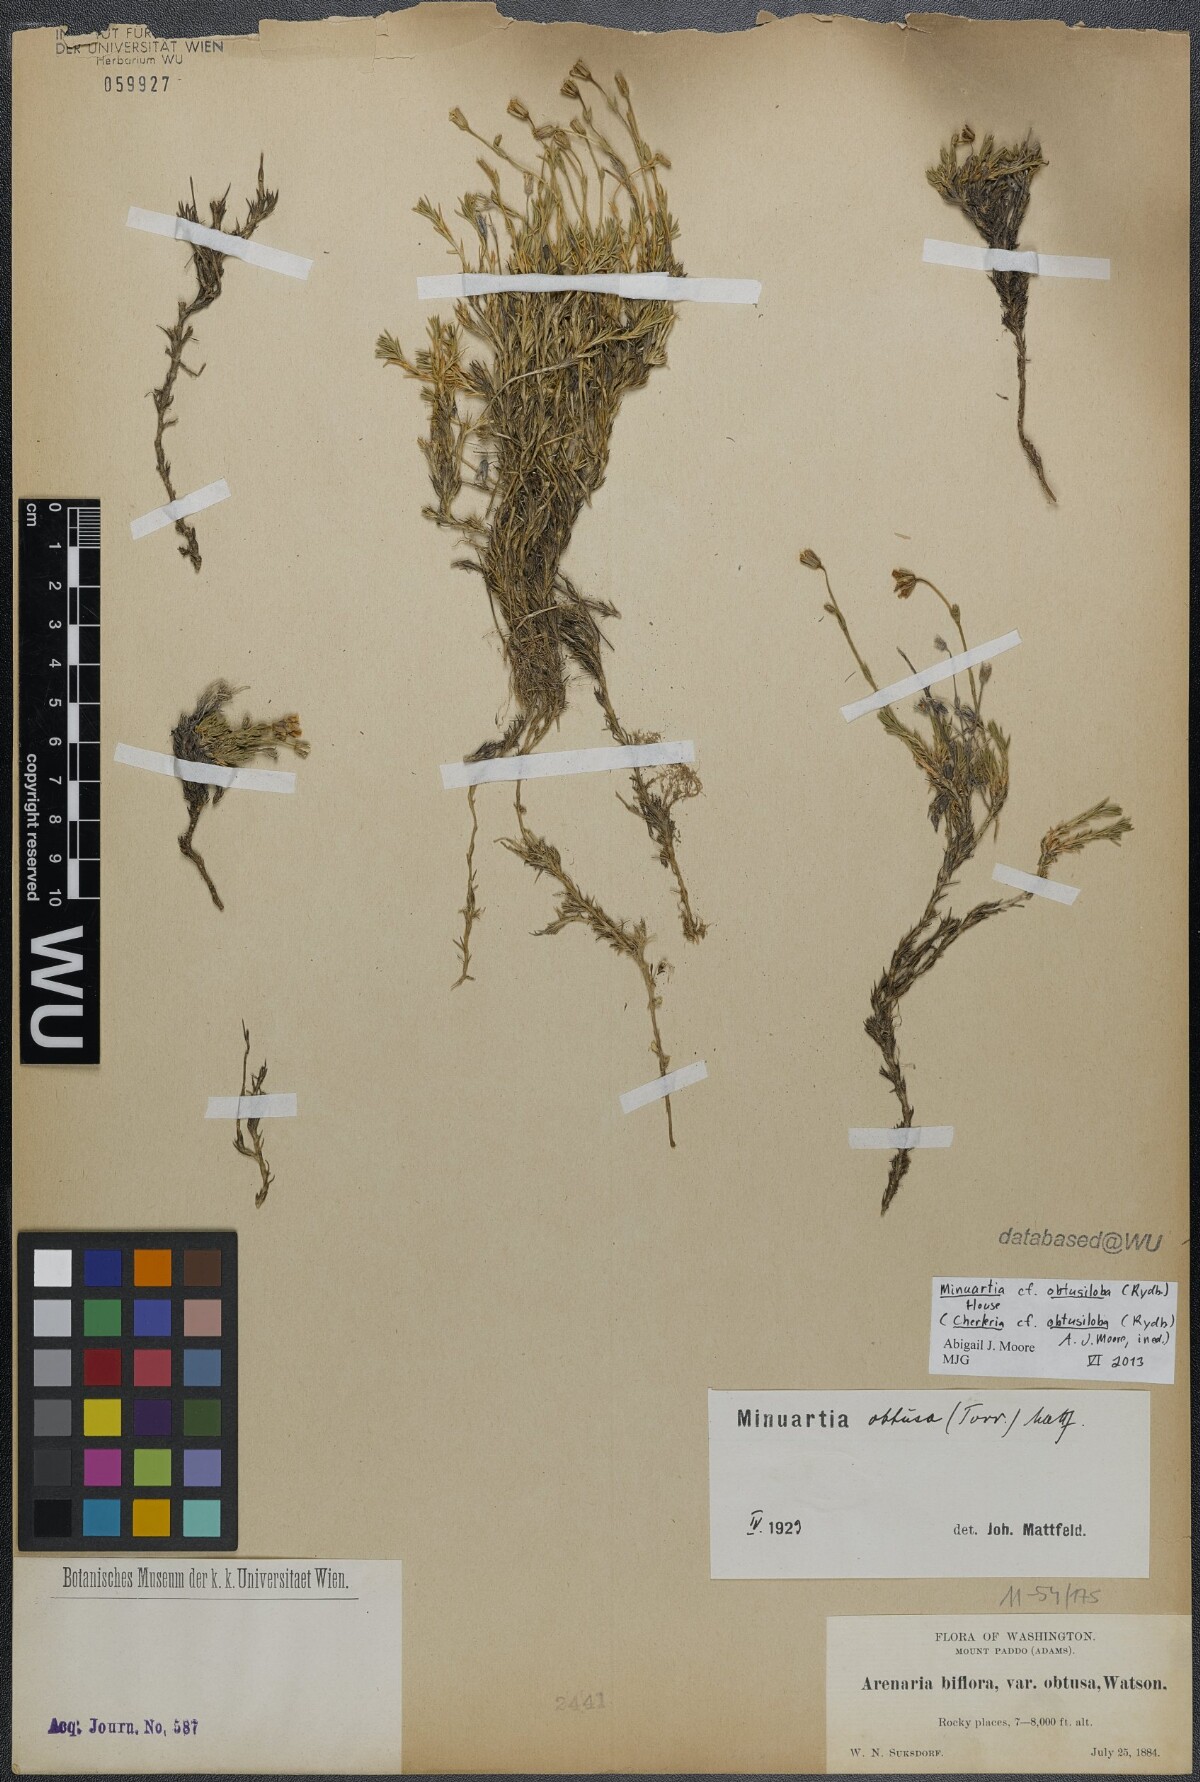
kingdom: Plantae
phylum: Tracheophyta
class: Magnoliopsida
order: Caryophyllales
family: Caryophyllaceae
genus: Cherleria
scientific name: Cherleria obtusiloba
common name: Alpine stitchwort
